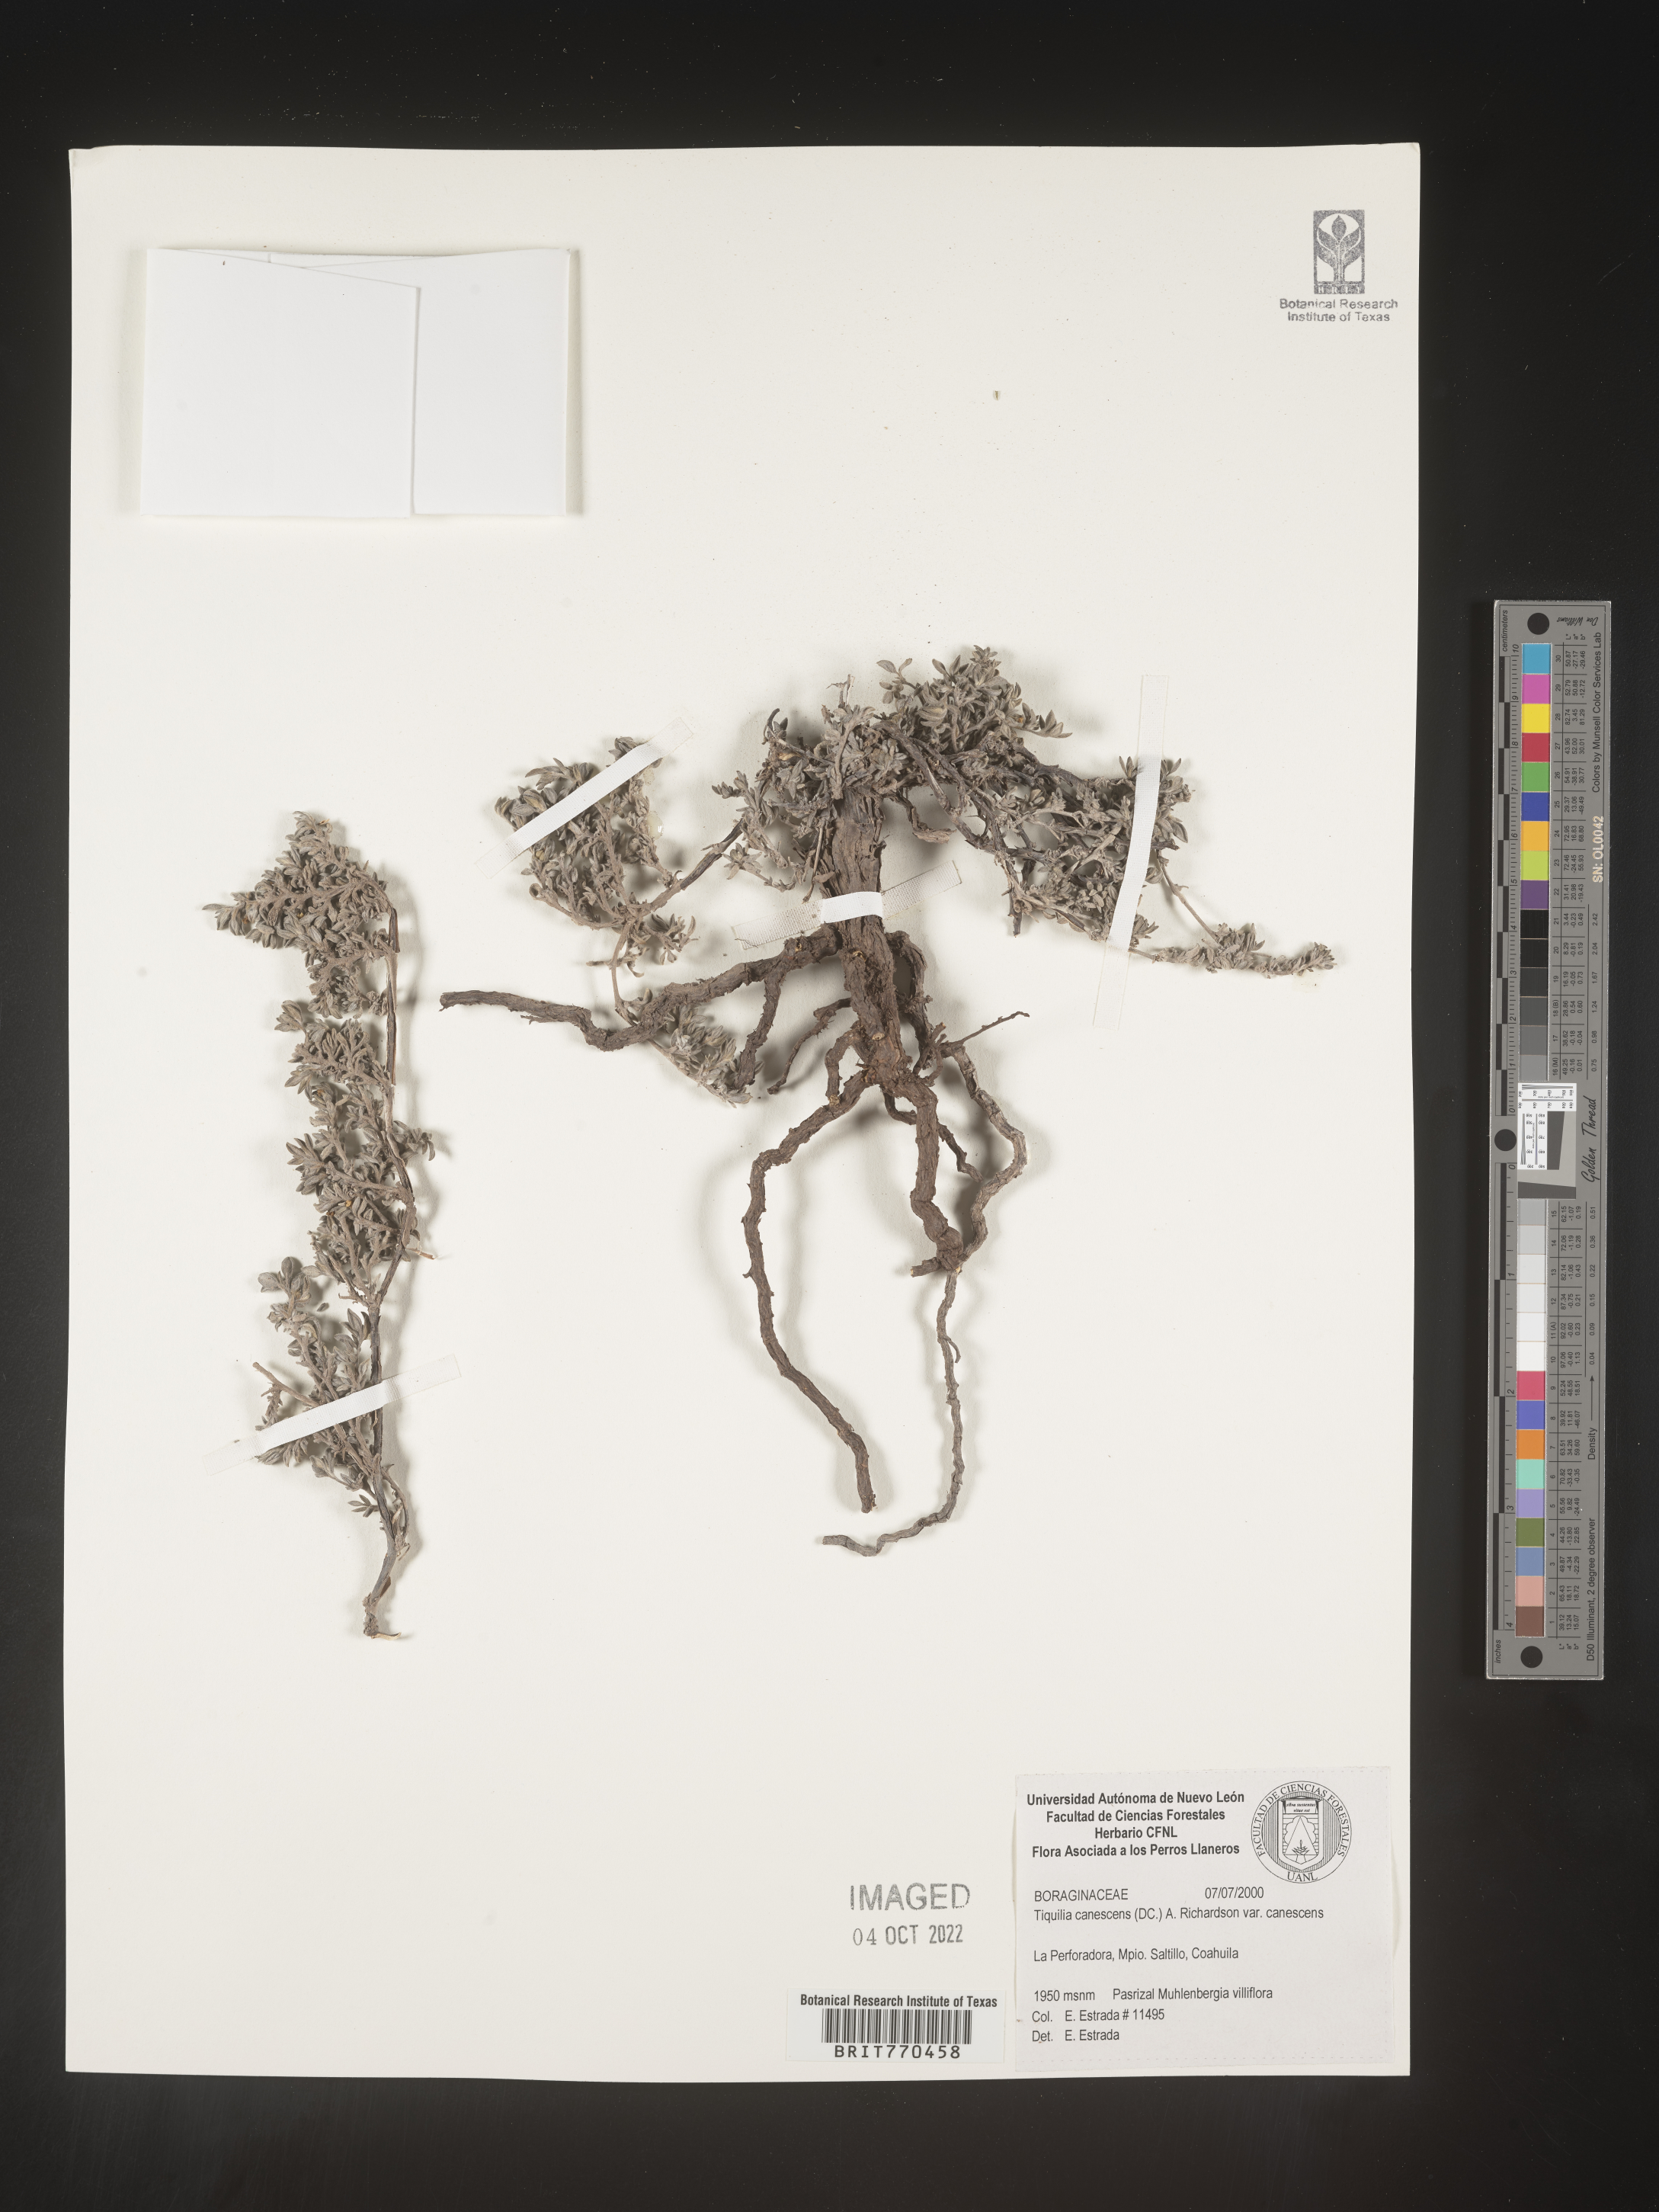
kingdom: Plantae
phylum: Tracheophyta
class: Magnoliopsida
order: Boraginales
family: Ehretiaceae
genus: Tiquilia
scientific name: Tiquilia
